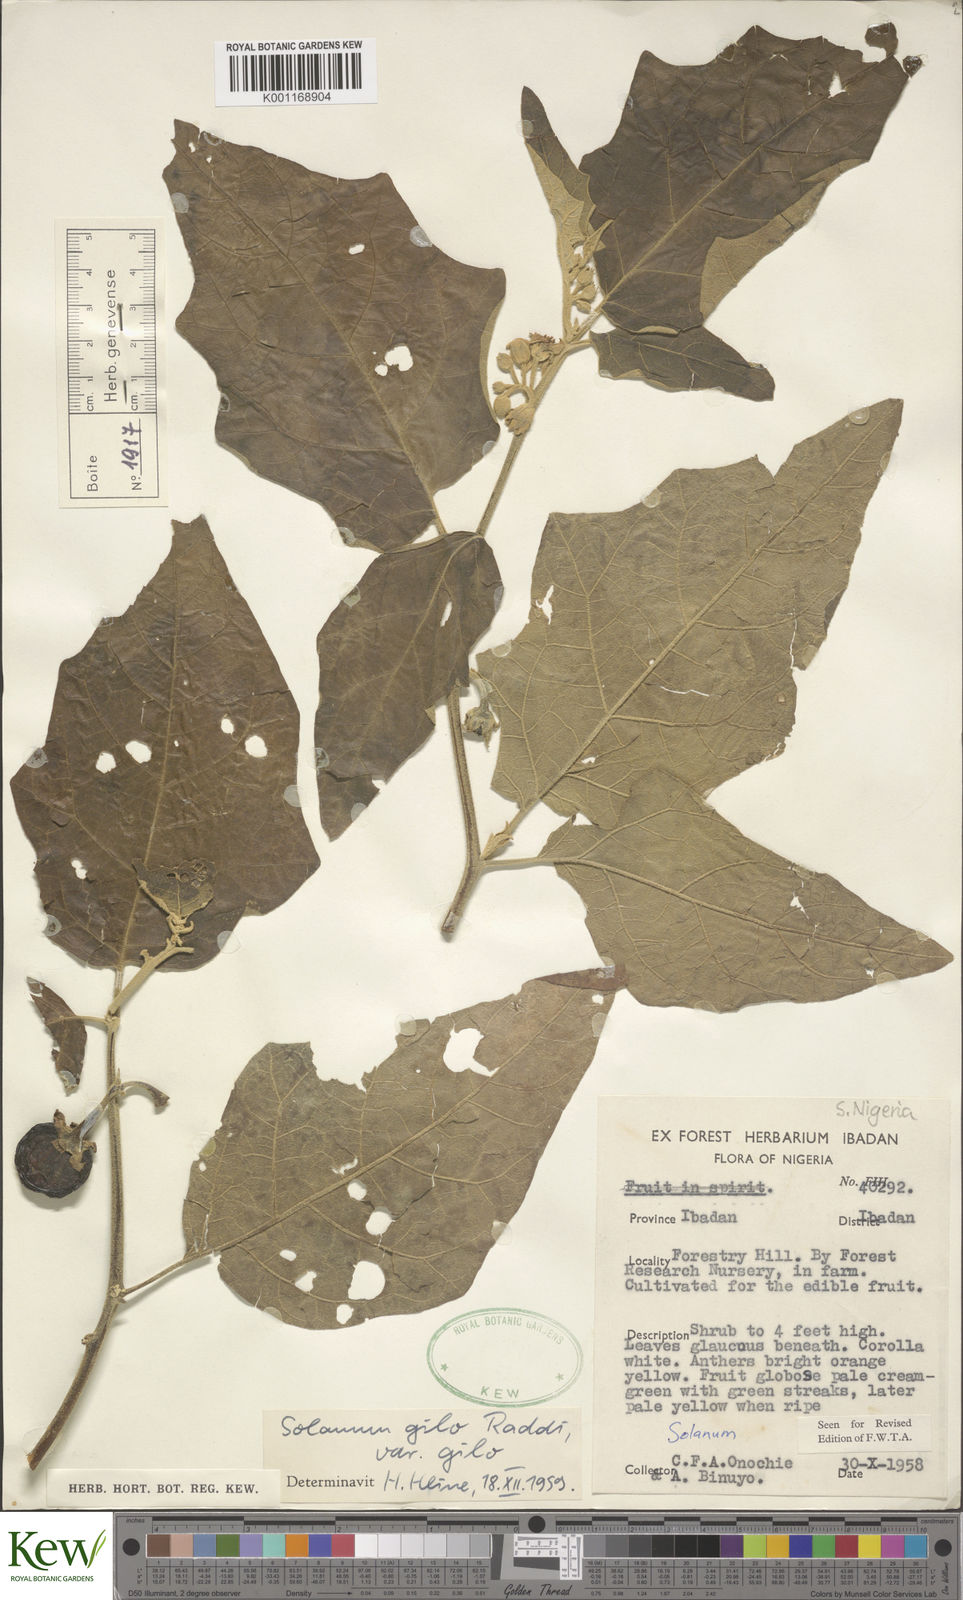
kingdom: Plantae
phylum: Tracheophyta
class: Magnoliopsida
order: Solanales
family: Solanaceae
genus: Solanum
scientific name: Solanum aethiopicum
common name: Gilo
